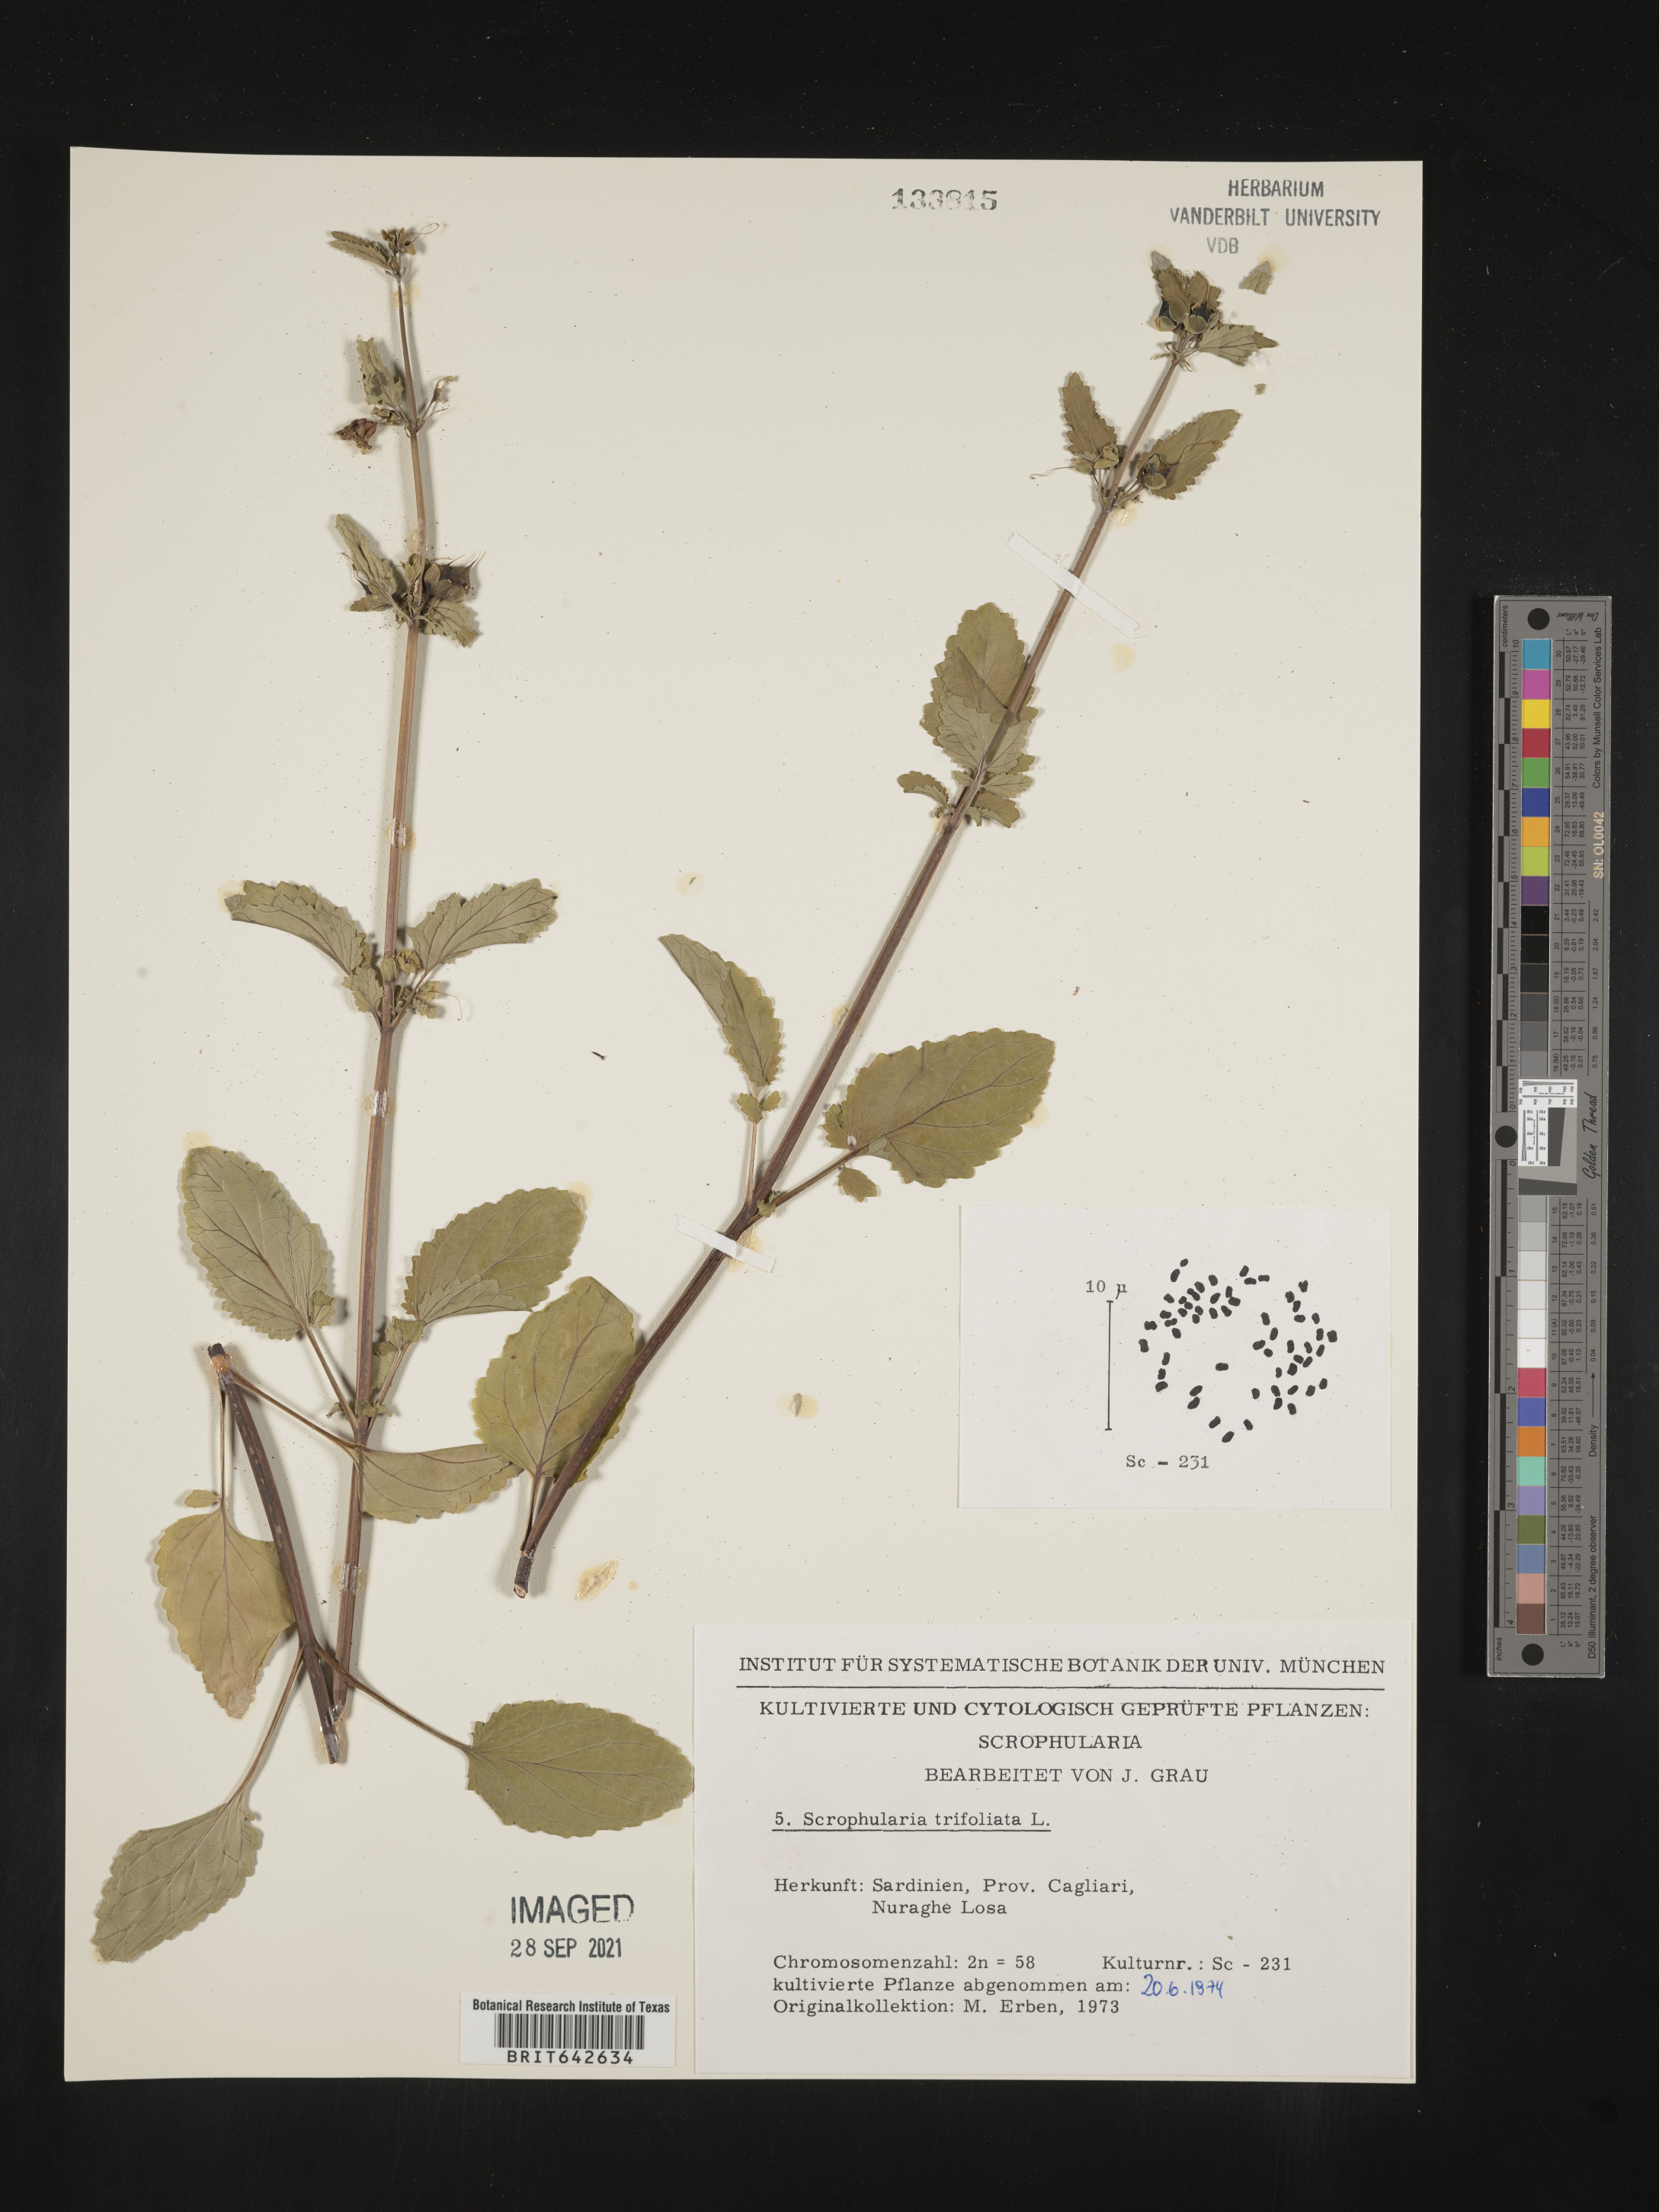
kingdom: Plantae
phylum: Tracheophyta
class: Magnoliopsida
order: Lamiales
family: Scrophulariaceae
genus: Scrophularia
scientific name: Scrophularia
